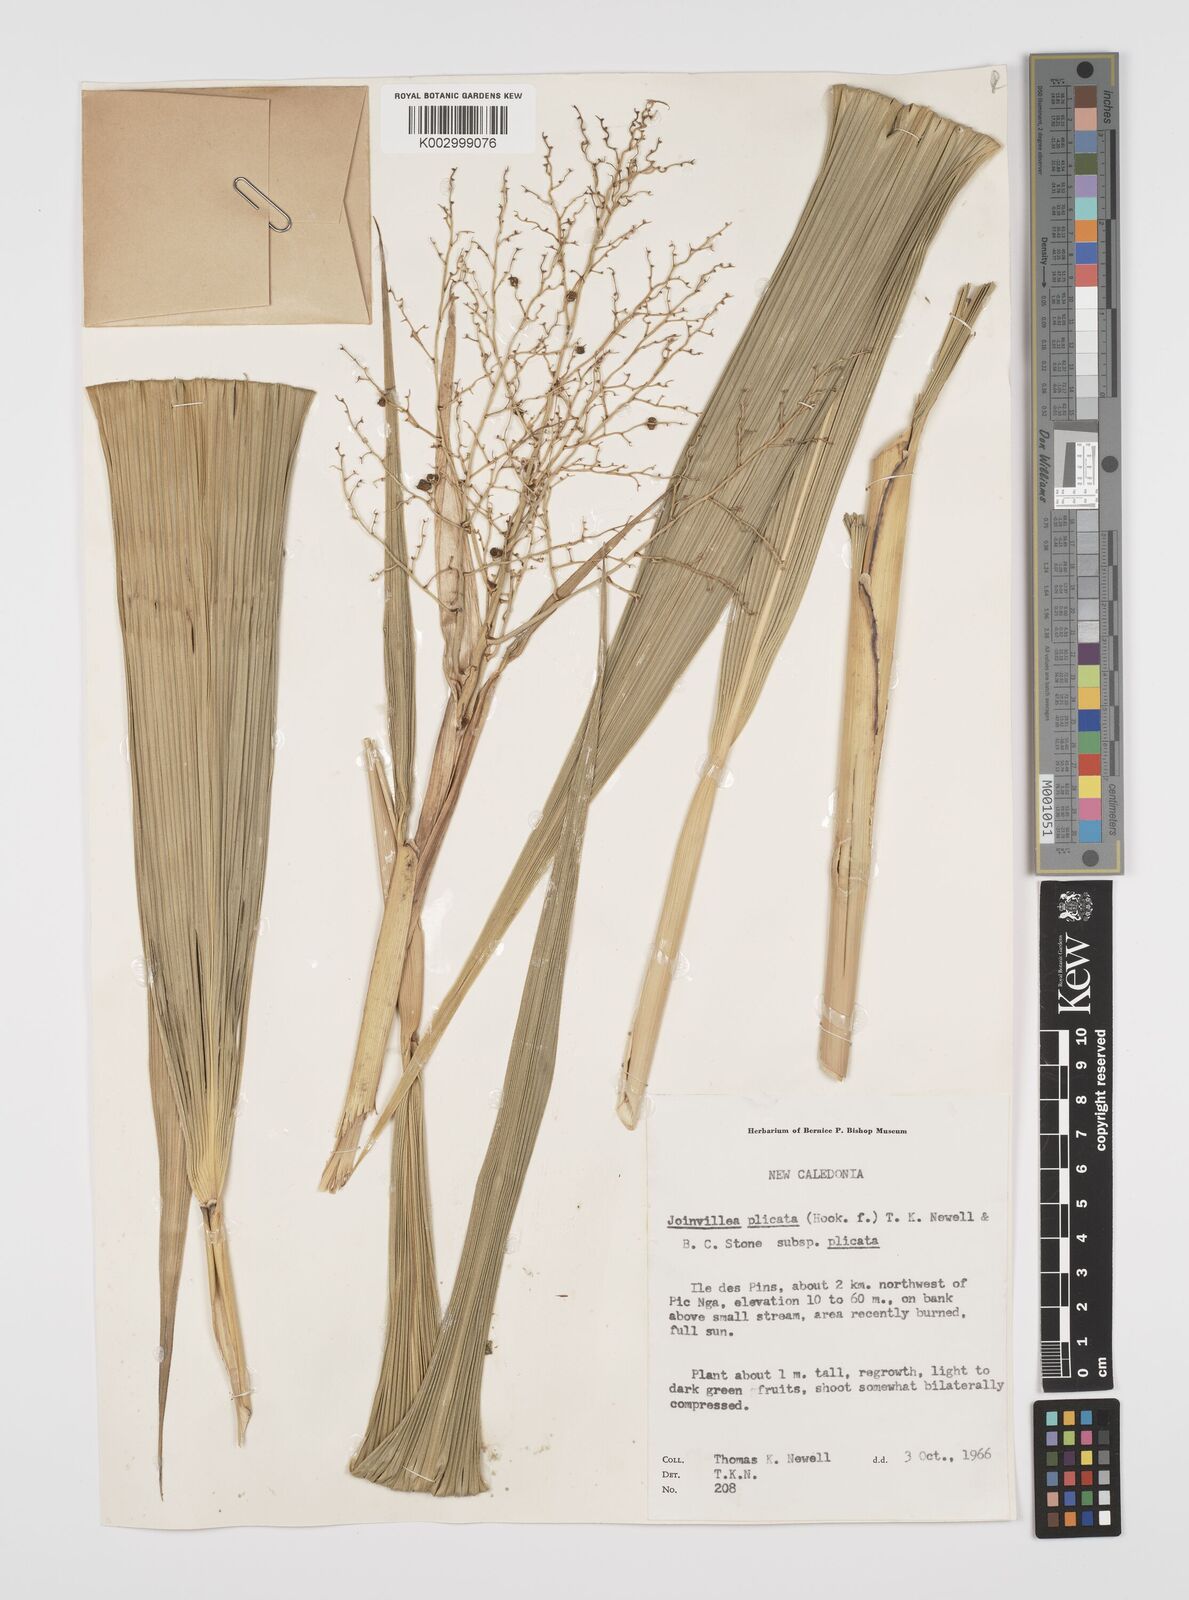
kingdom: Plantae
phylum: Tracheophyta
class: Liliopsida
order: Poales
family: Joinvilleaceae
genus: Joinvillea
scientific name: Joinvillea plicata
